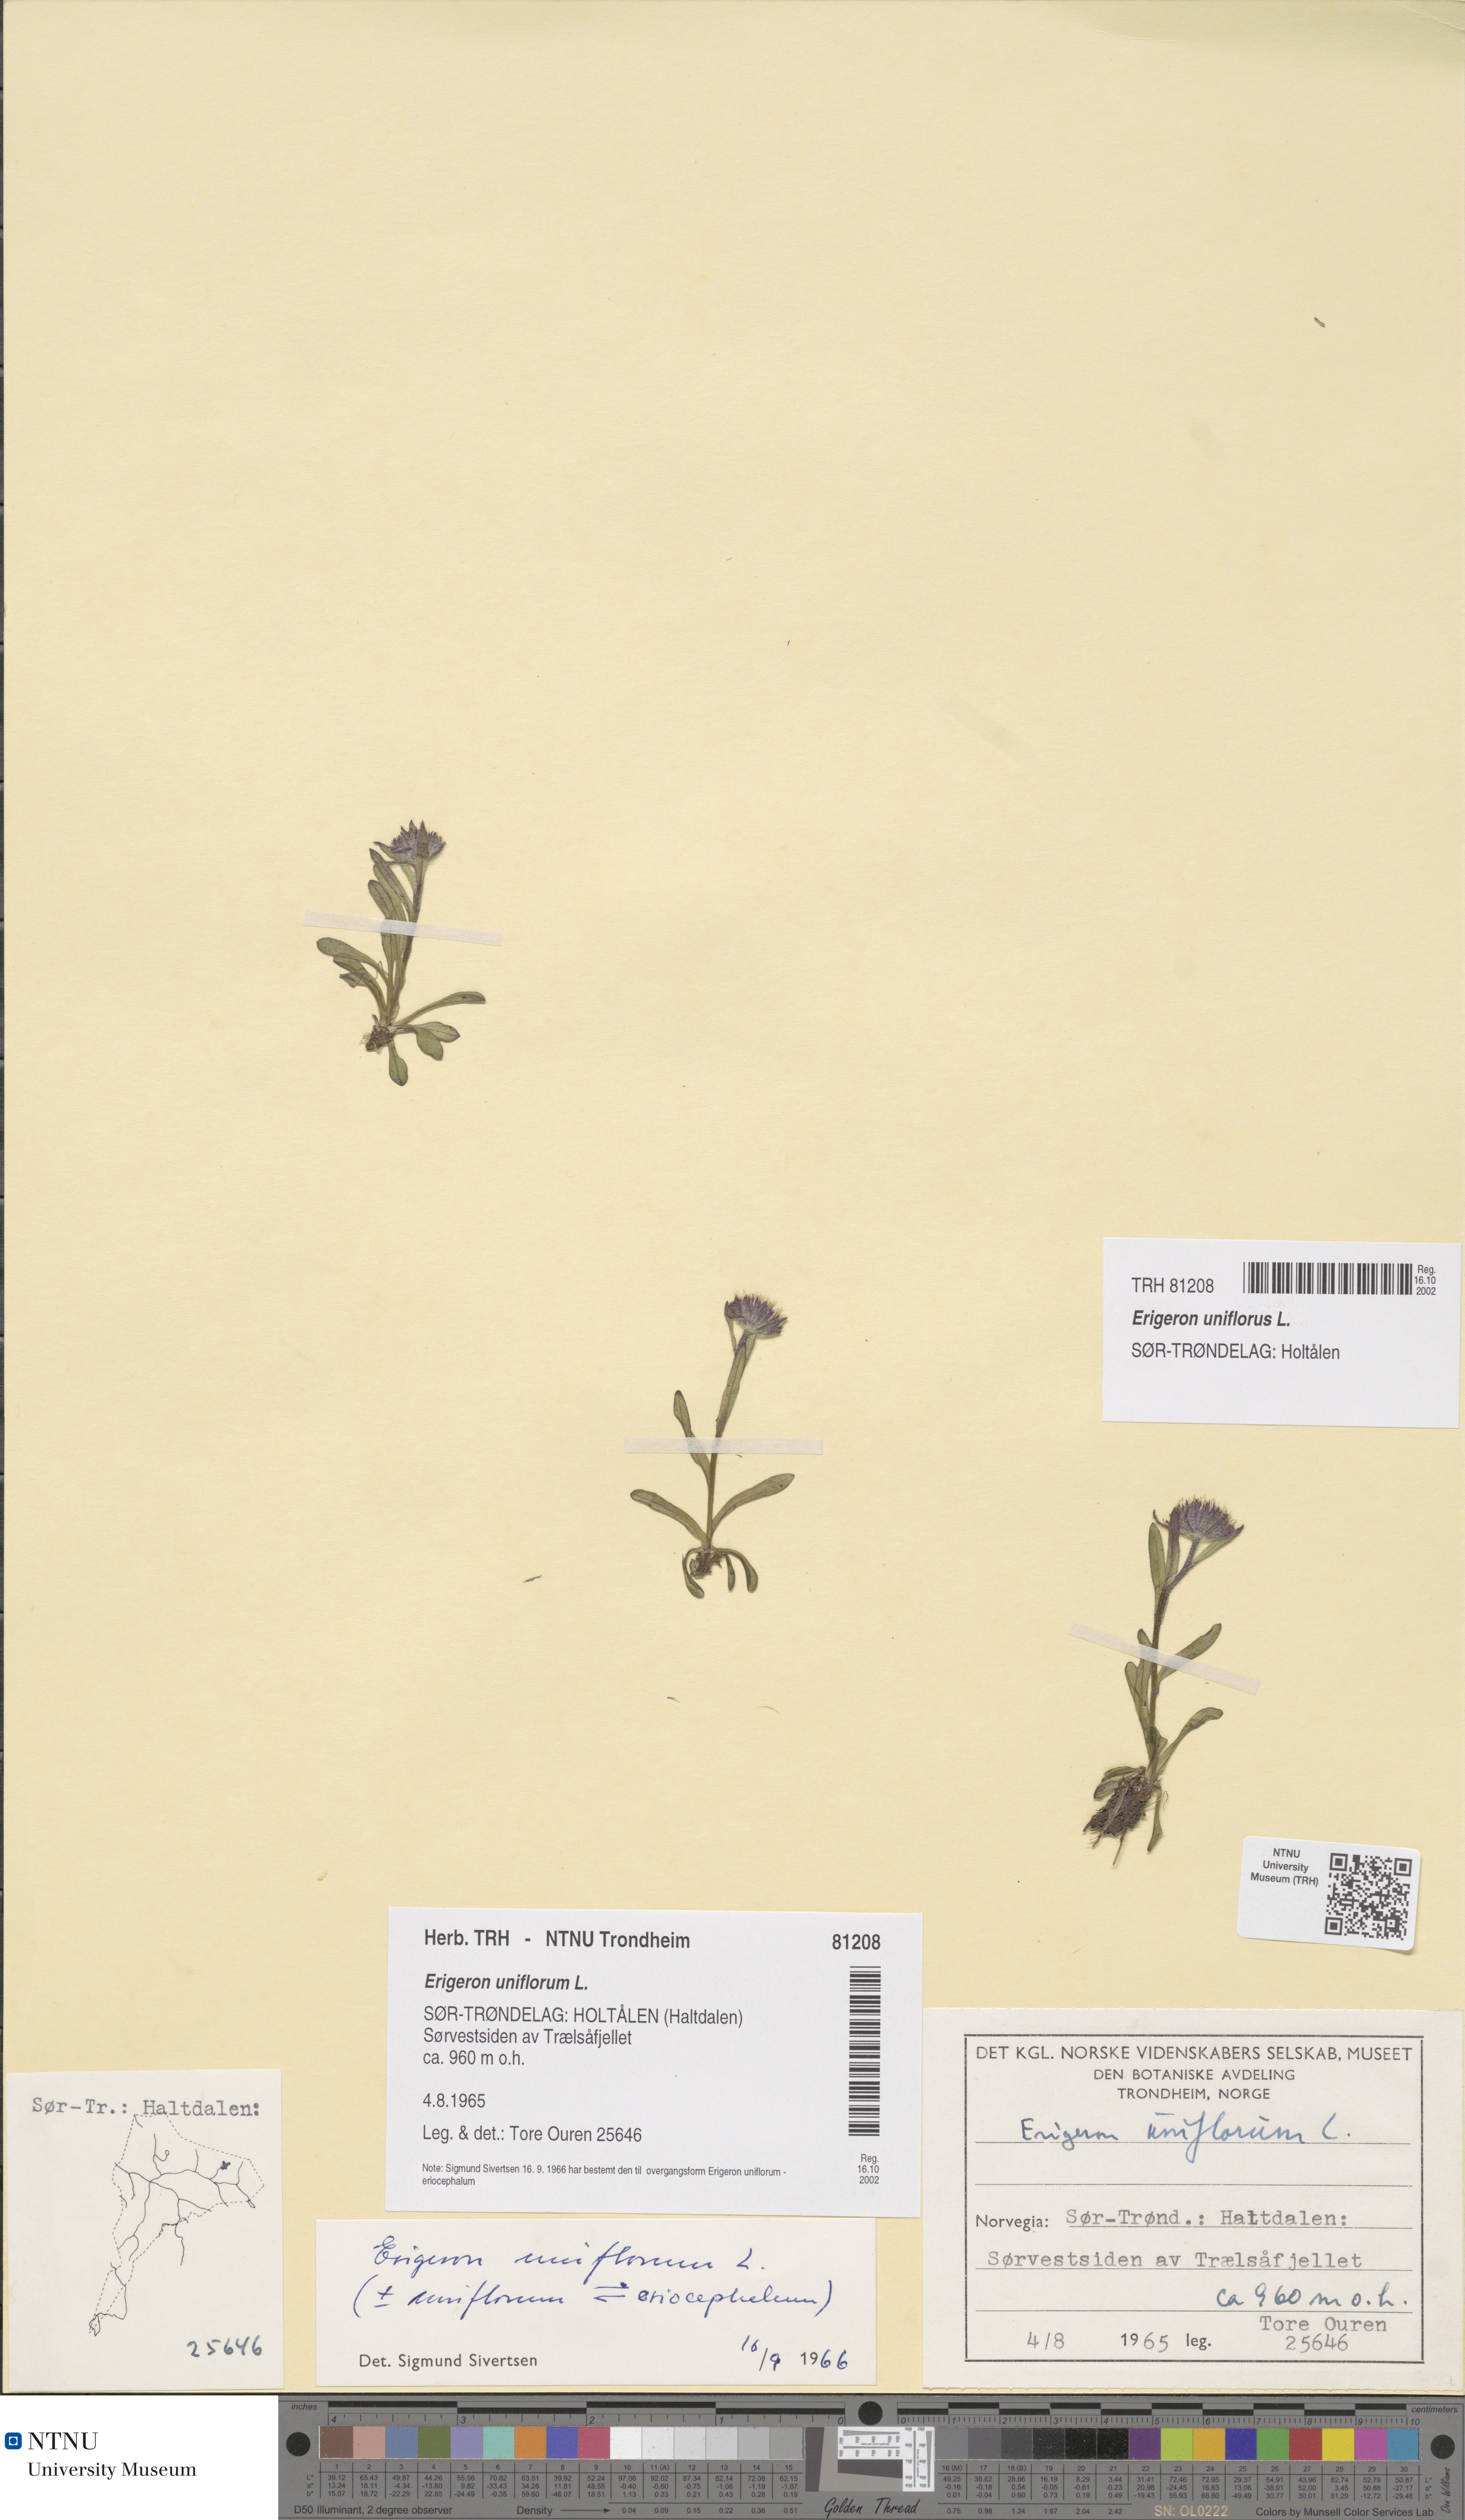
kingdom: Plantae
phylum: Tracheophyta
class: Magnoliopsida
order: Asterales
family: Asteraceae
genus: Erigeron
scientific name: Erigeron uniflorus
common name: Northern daisy
